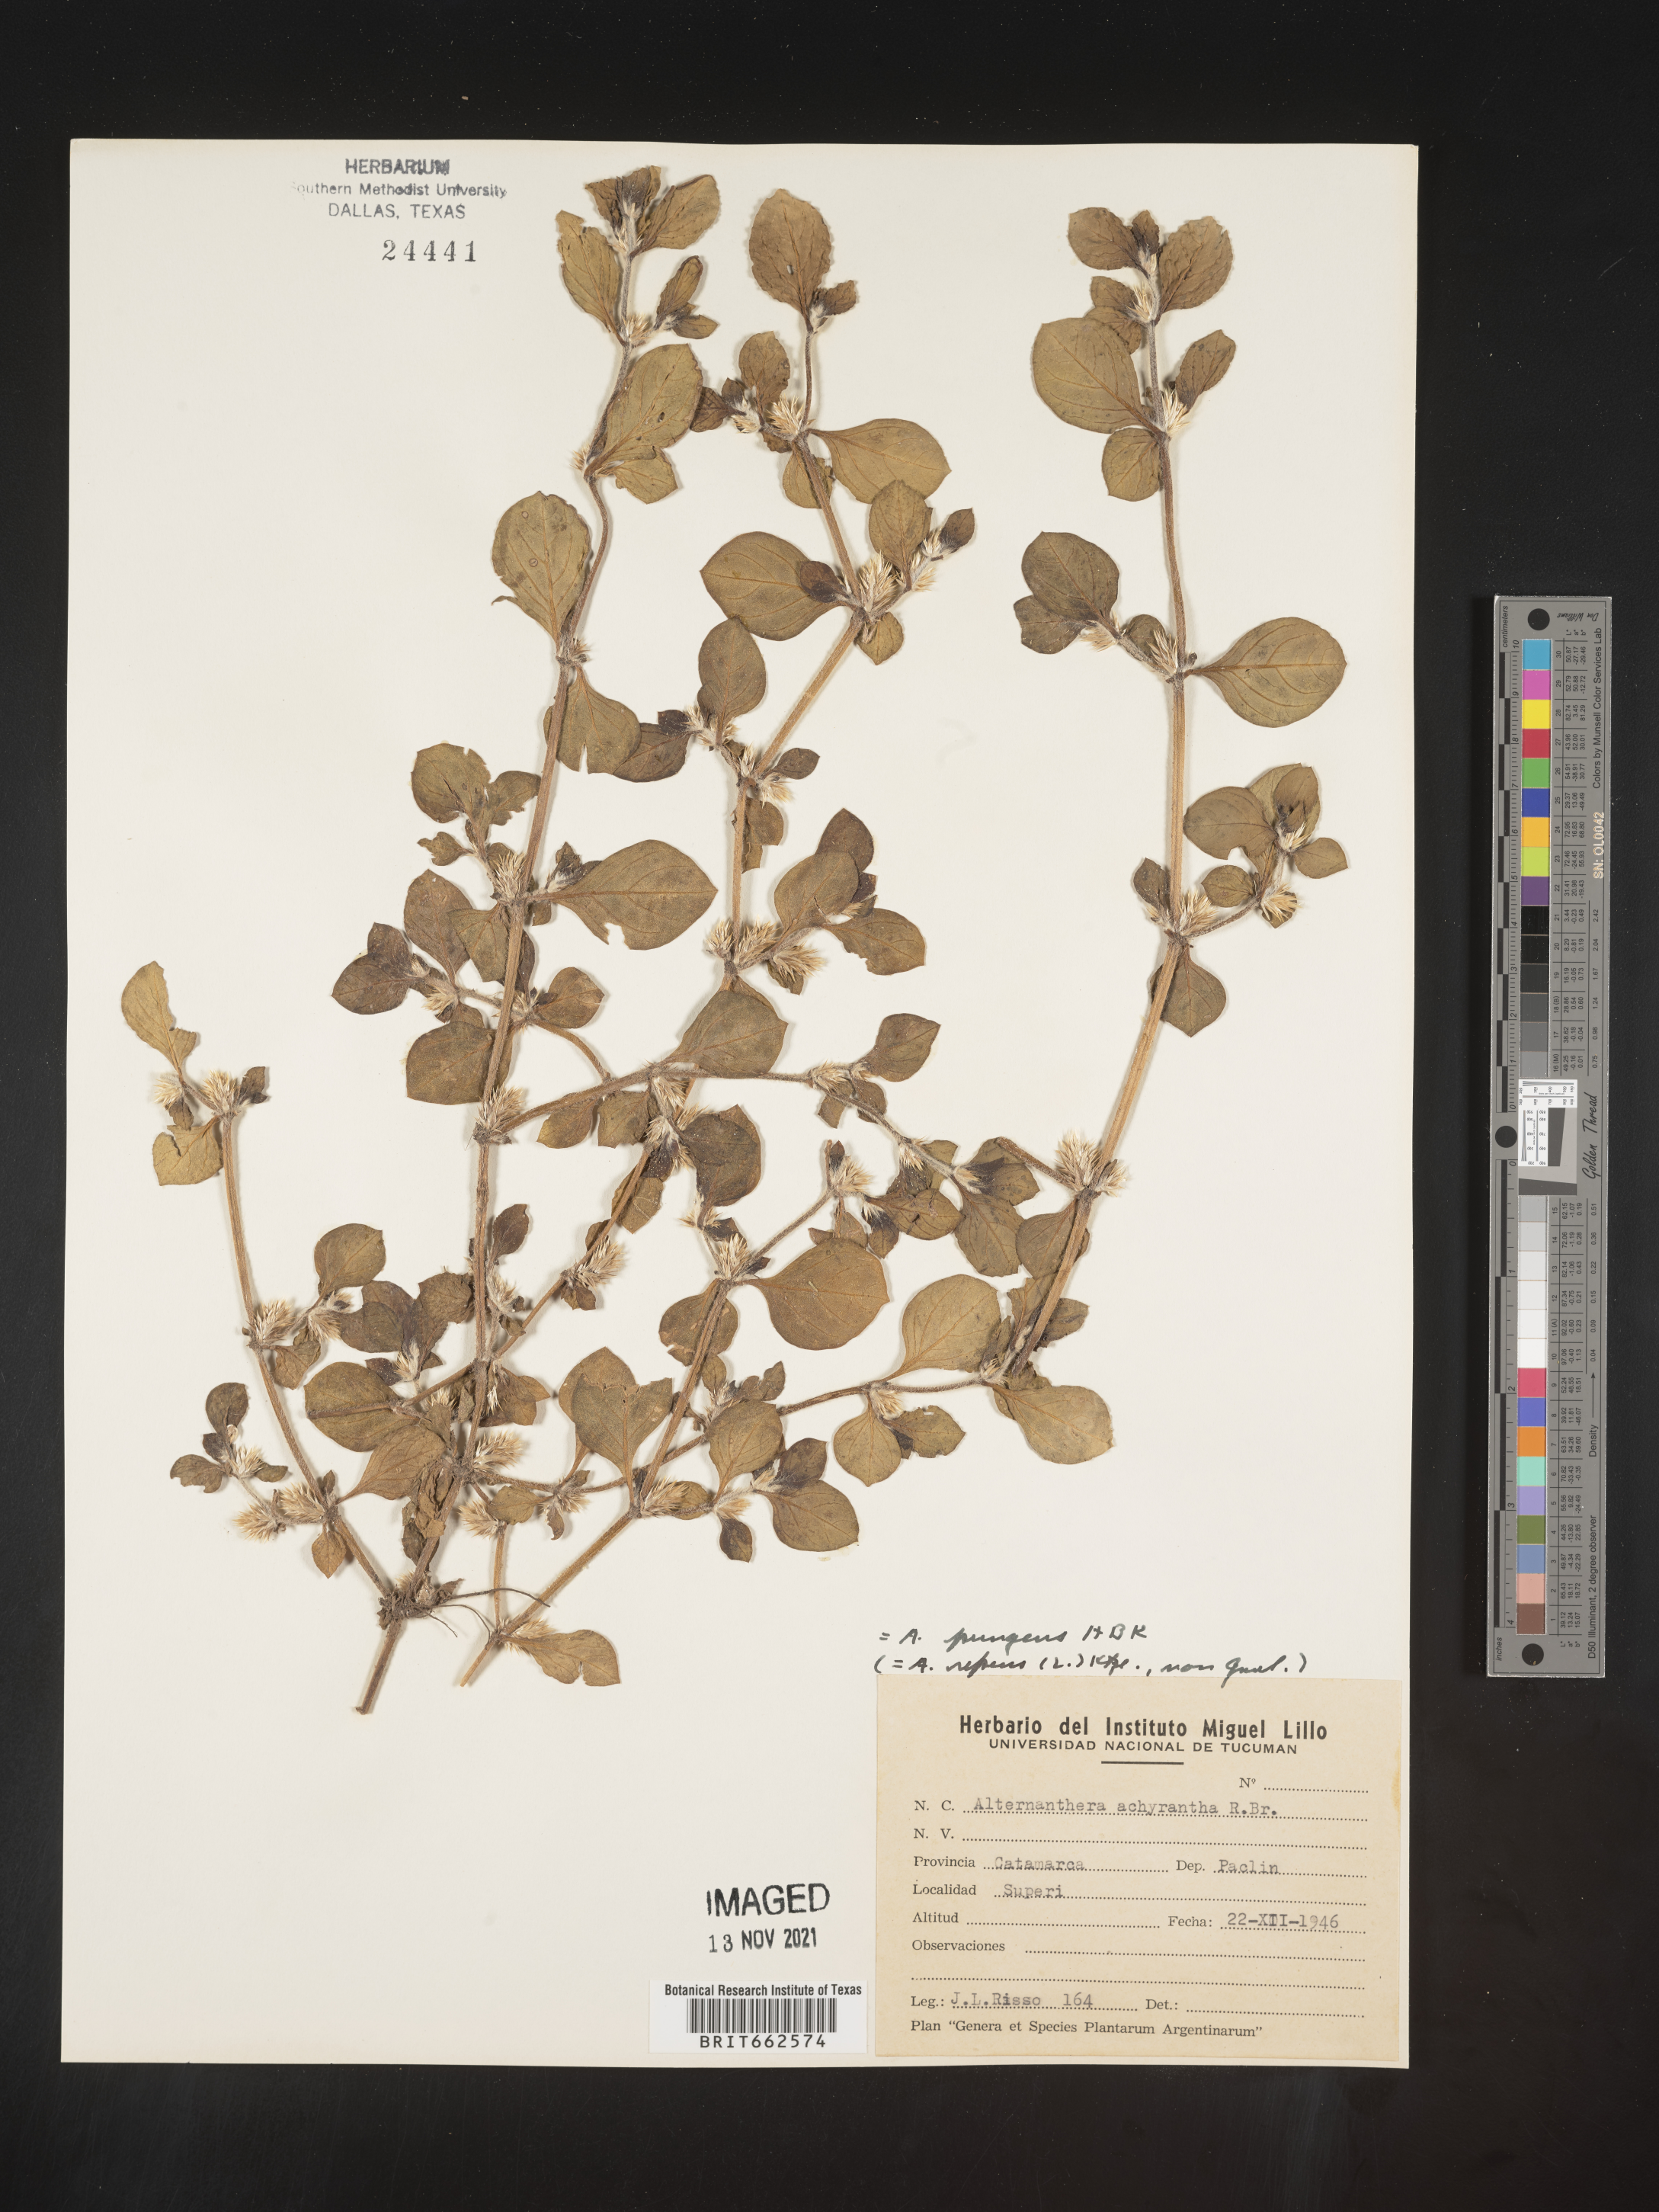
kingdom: Plantae
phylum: Tracheophyta
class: Magnoliopsida
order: Caryophyllales
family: Amaranthaceae
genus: Alternanthera
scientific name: Alternanthera
